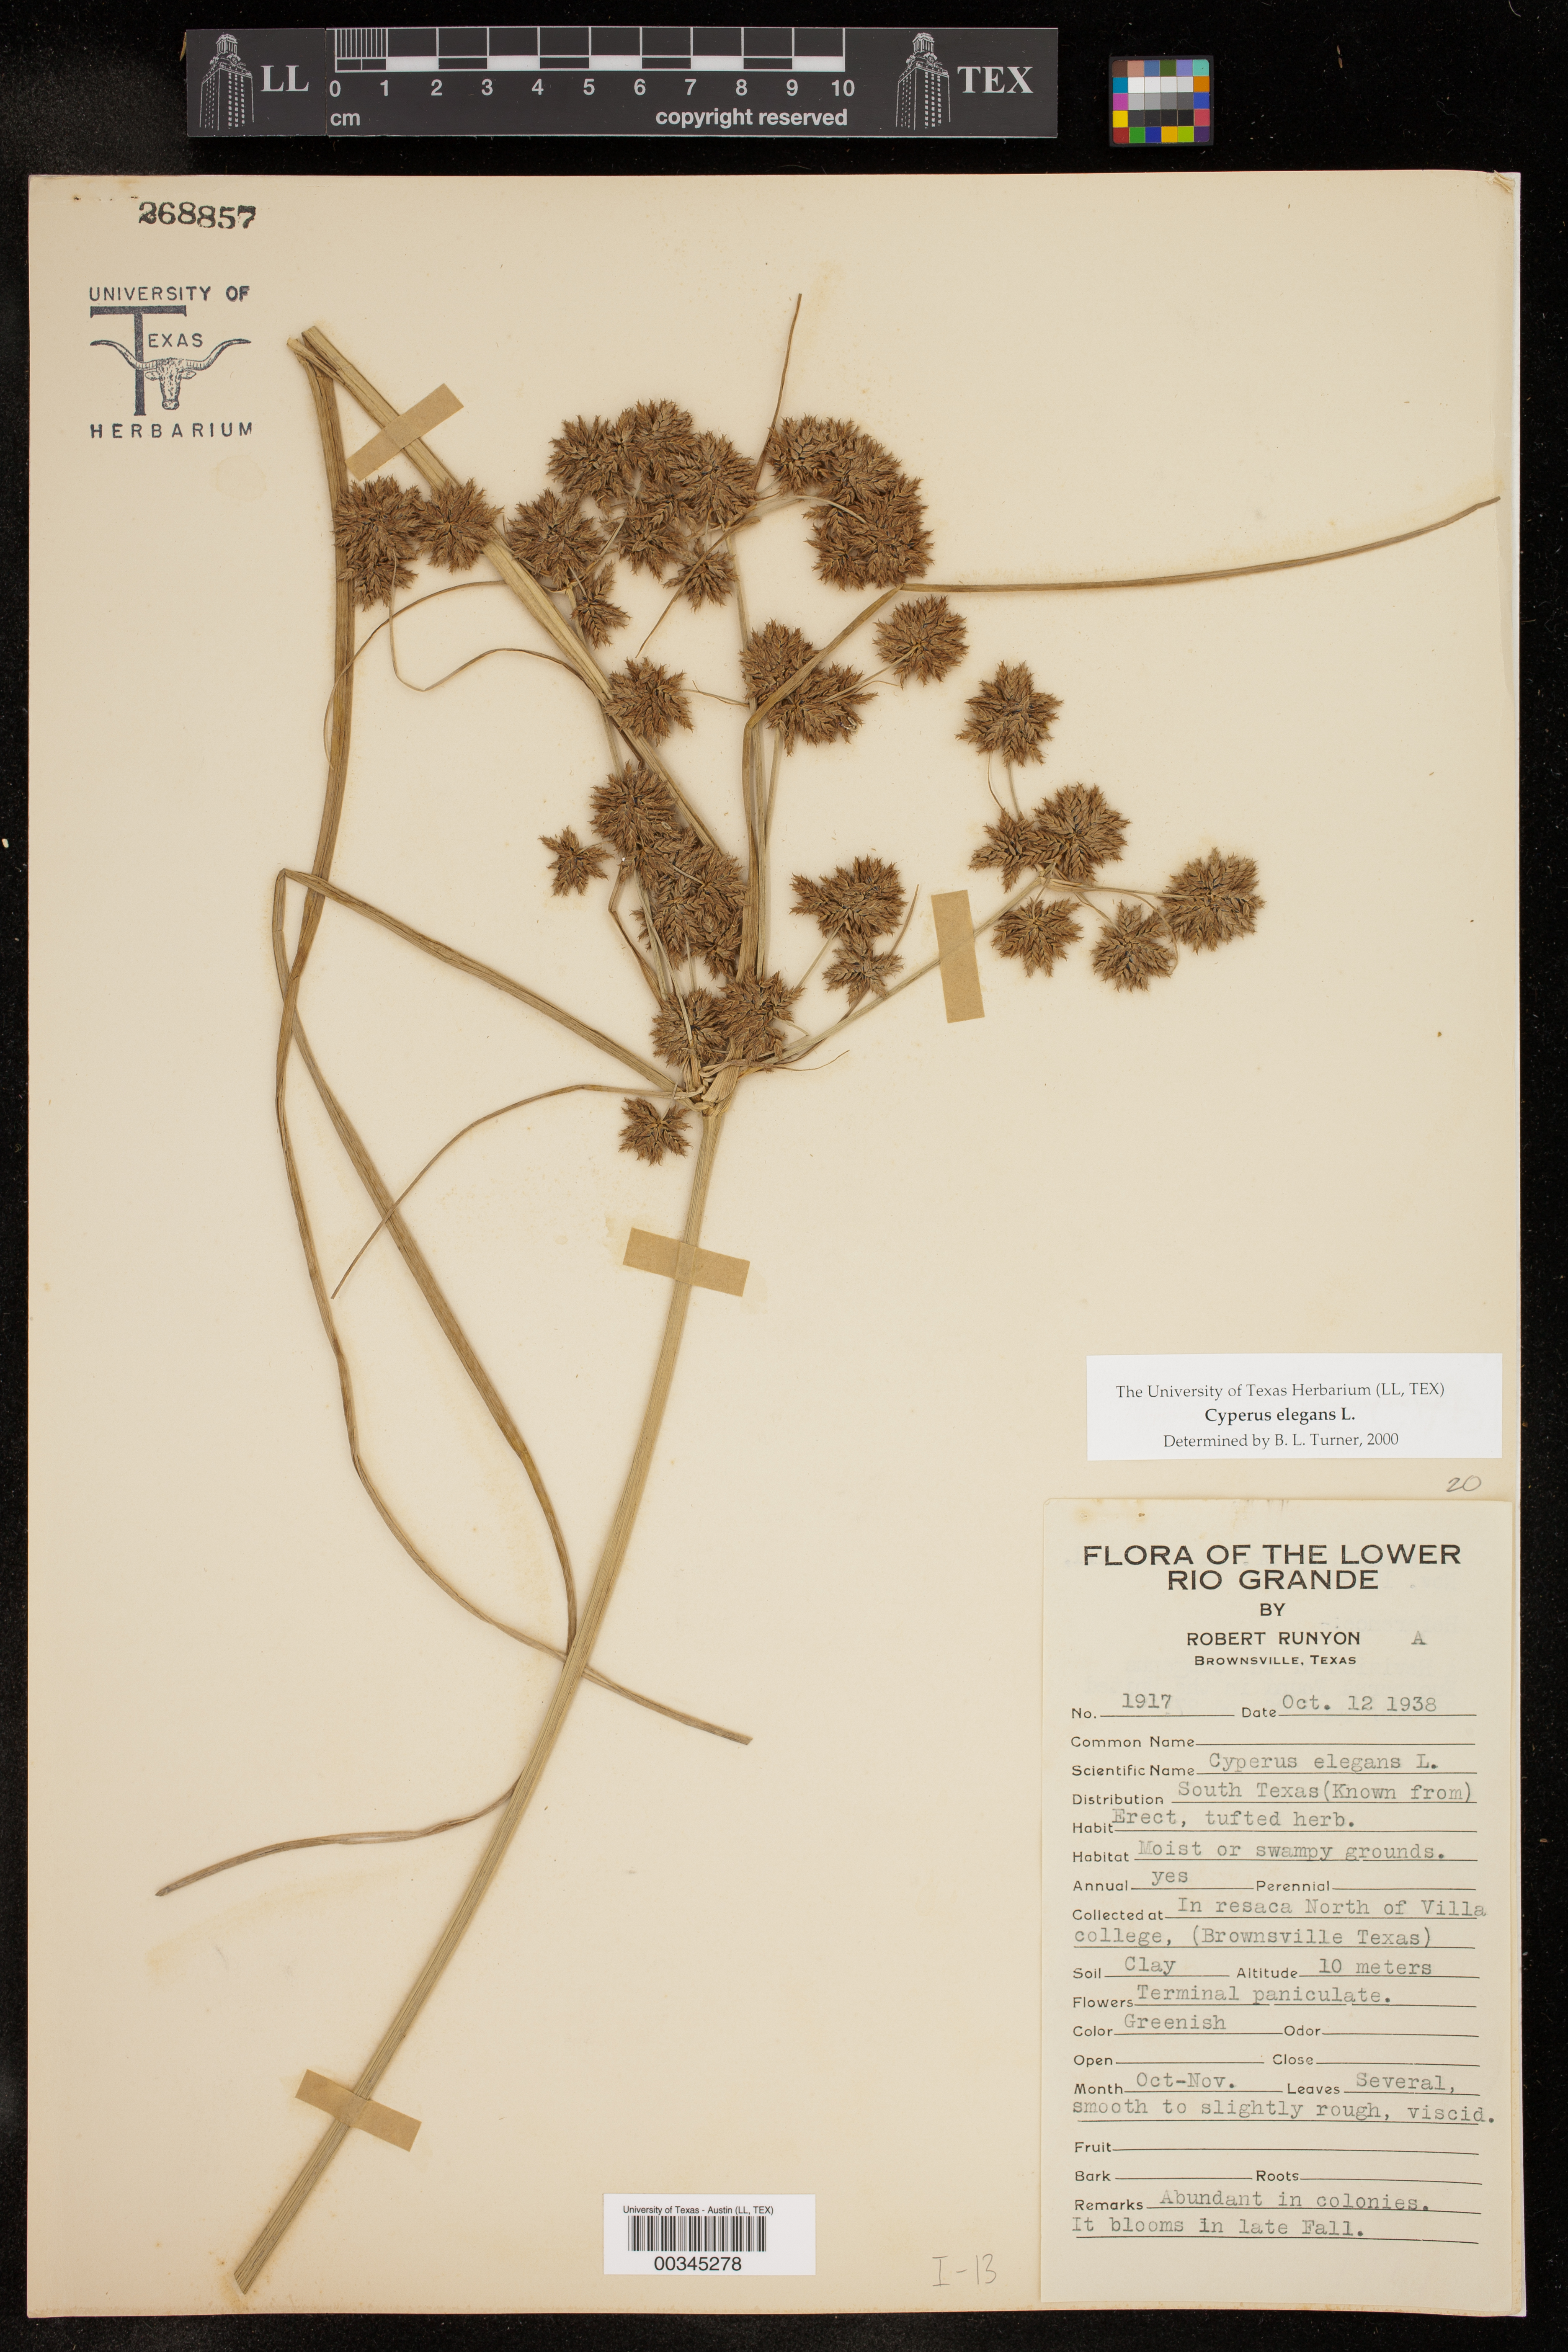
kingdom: Plantae
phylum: Tracheophyta
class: Liliopsida
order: Poales
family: Cyperaceae
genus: Cyperus
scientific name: Cyperus elegans
